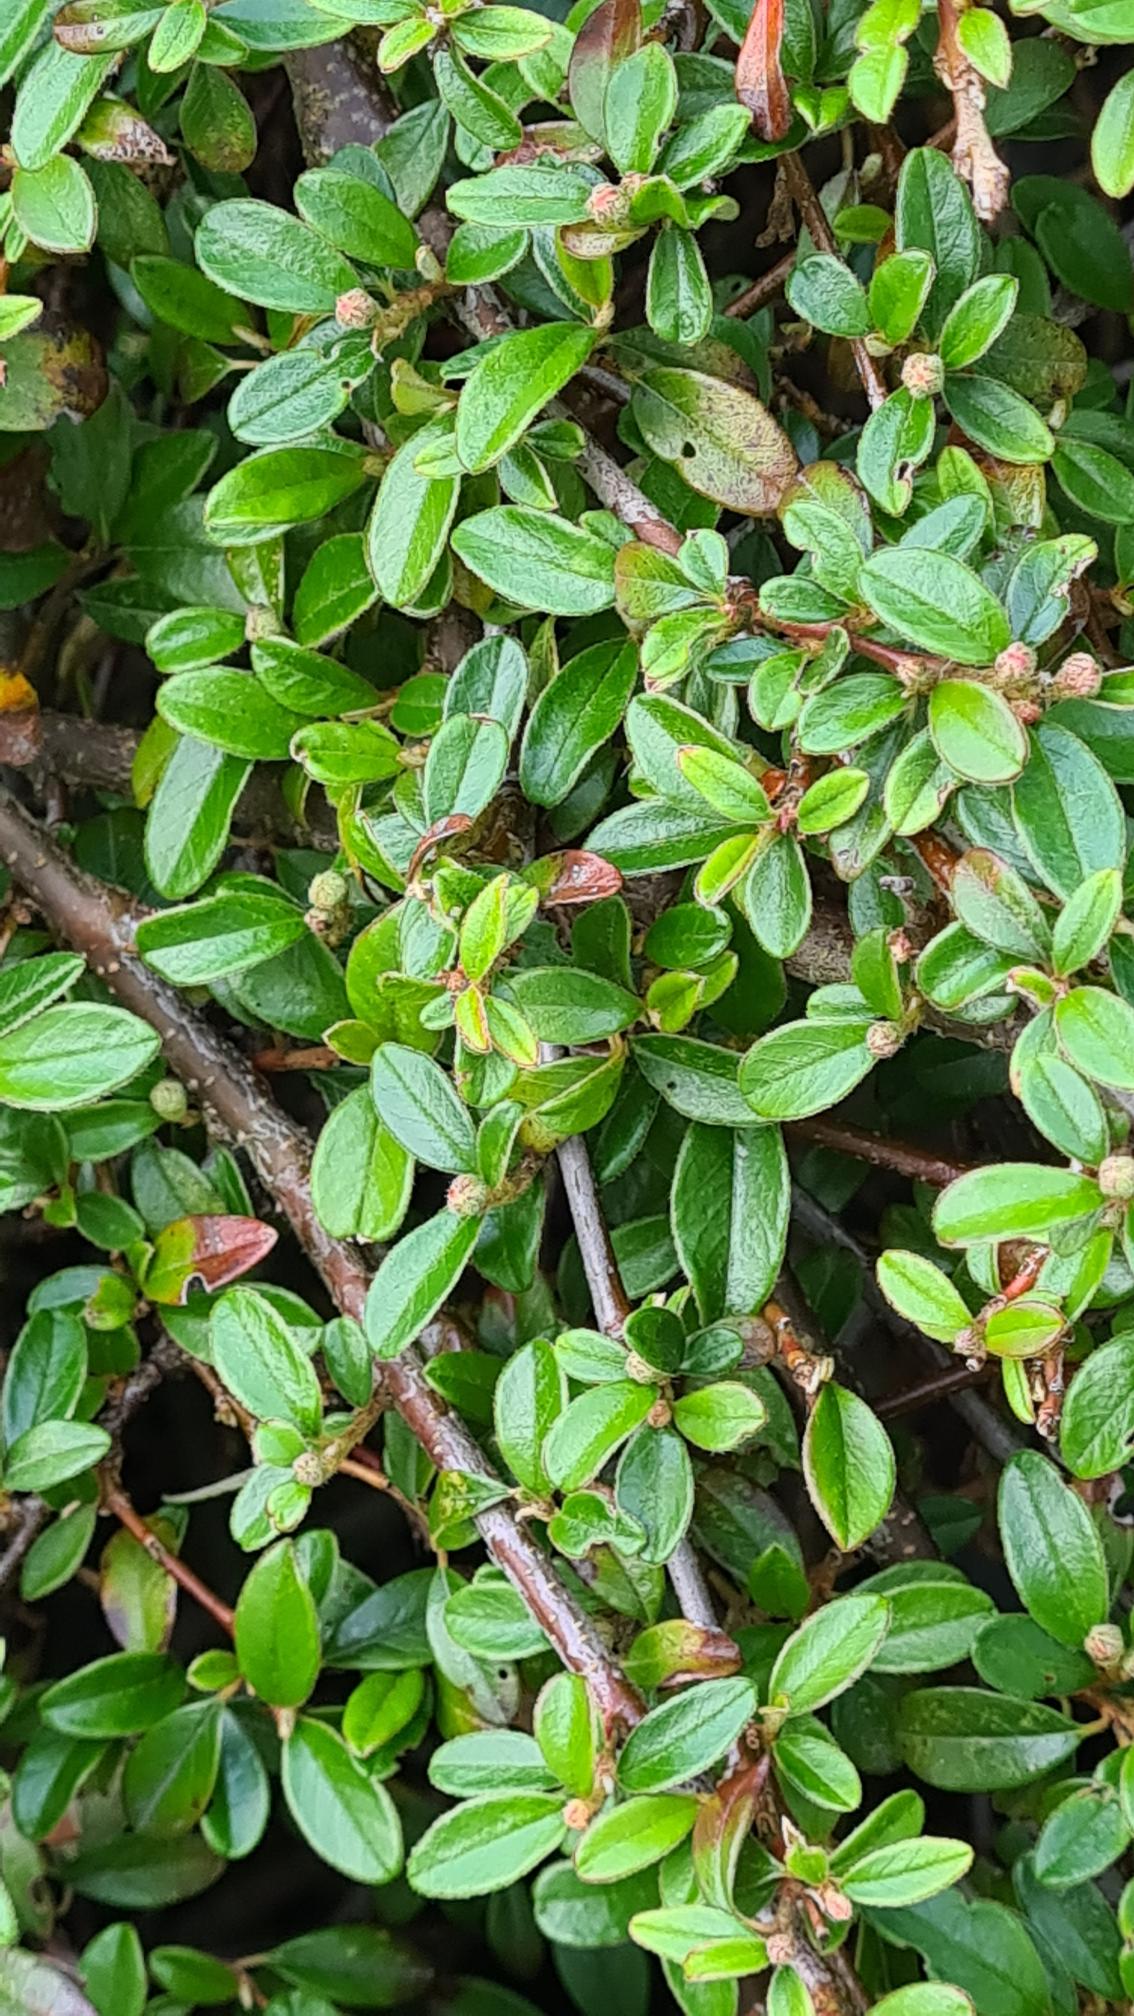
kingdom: Plantae
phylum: Tracheophyta
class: Magnoliopsida
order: Rosales
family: Rosaceae
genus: Cotoneaster
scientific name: Cotoneaster dammeri
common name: Krybende dværgmispel
